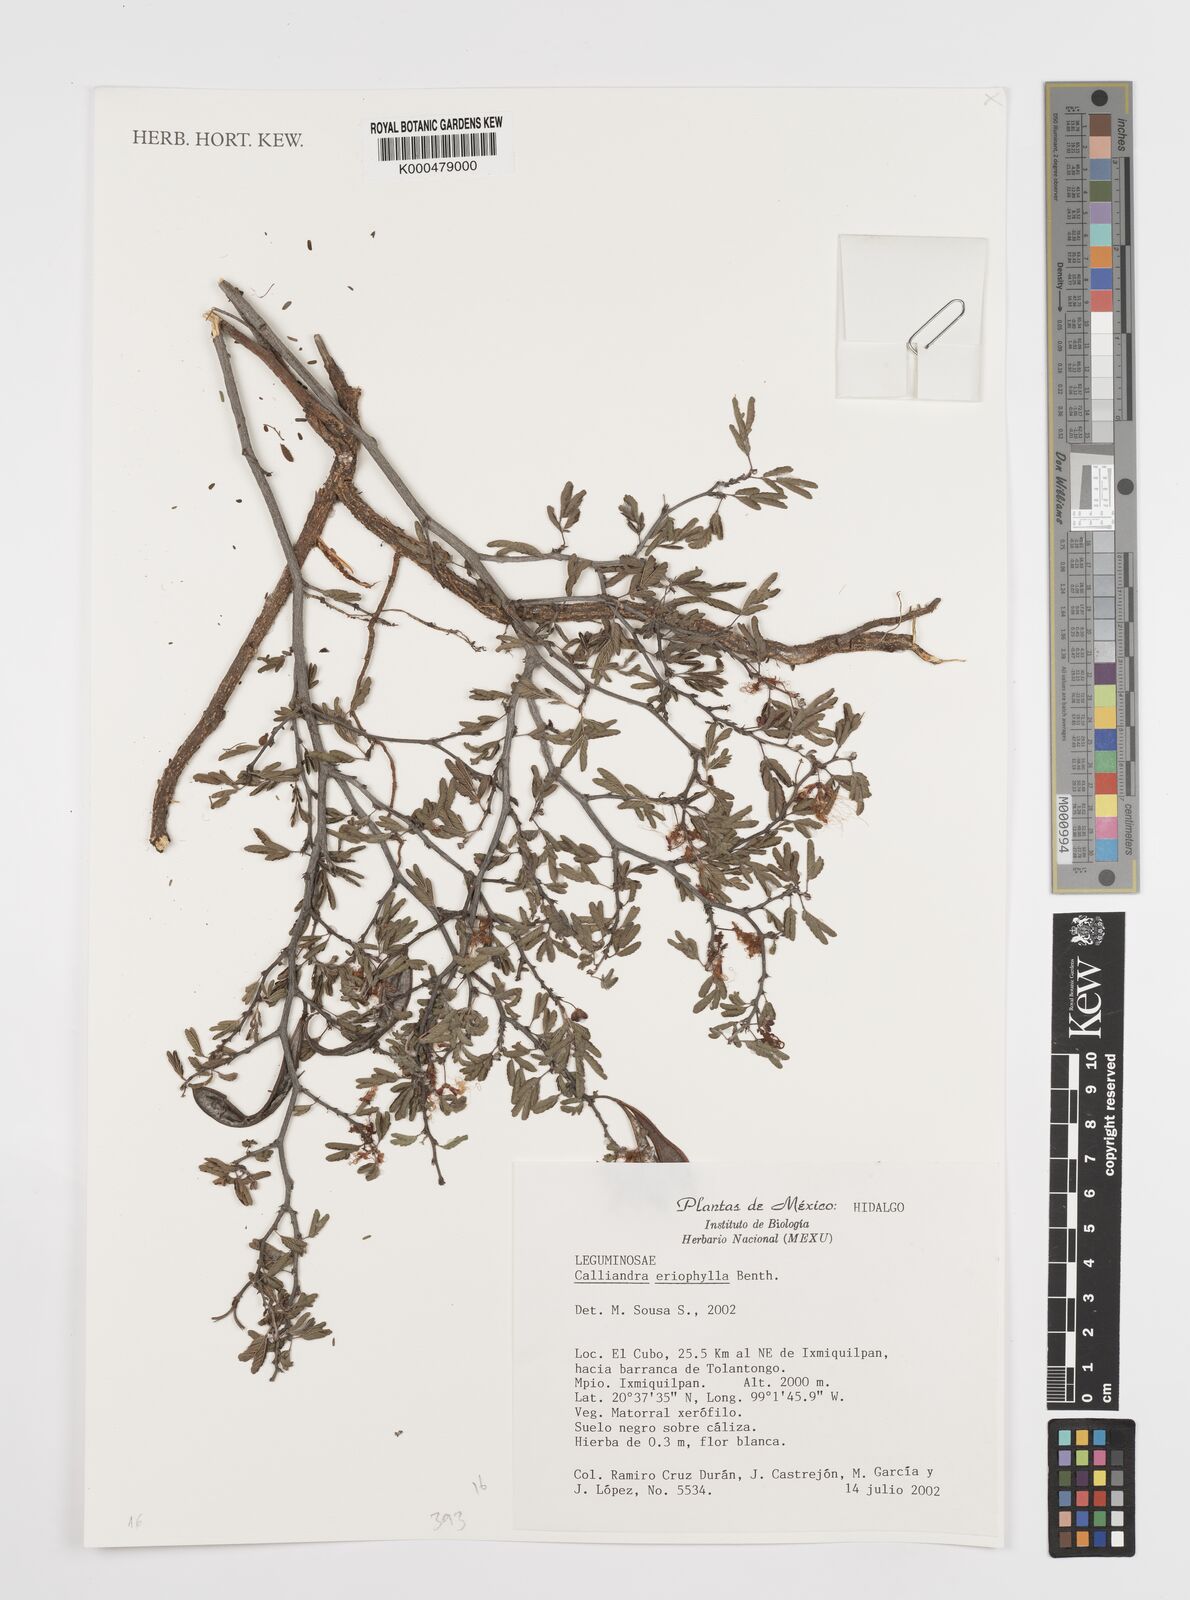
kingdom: Plantae
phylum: Tracheophyta
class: Magnoliopsida
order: Fabales
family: Fabaceae
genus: Calliandra
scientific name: Calliandra eriophylla
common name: Fairy-duster
